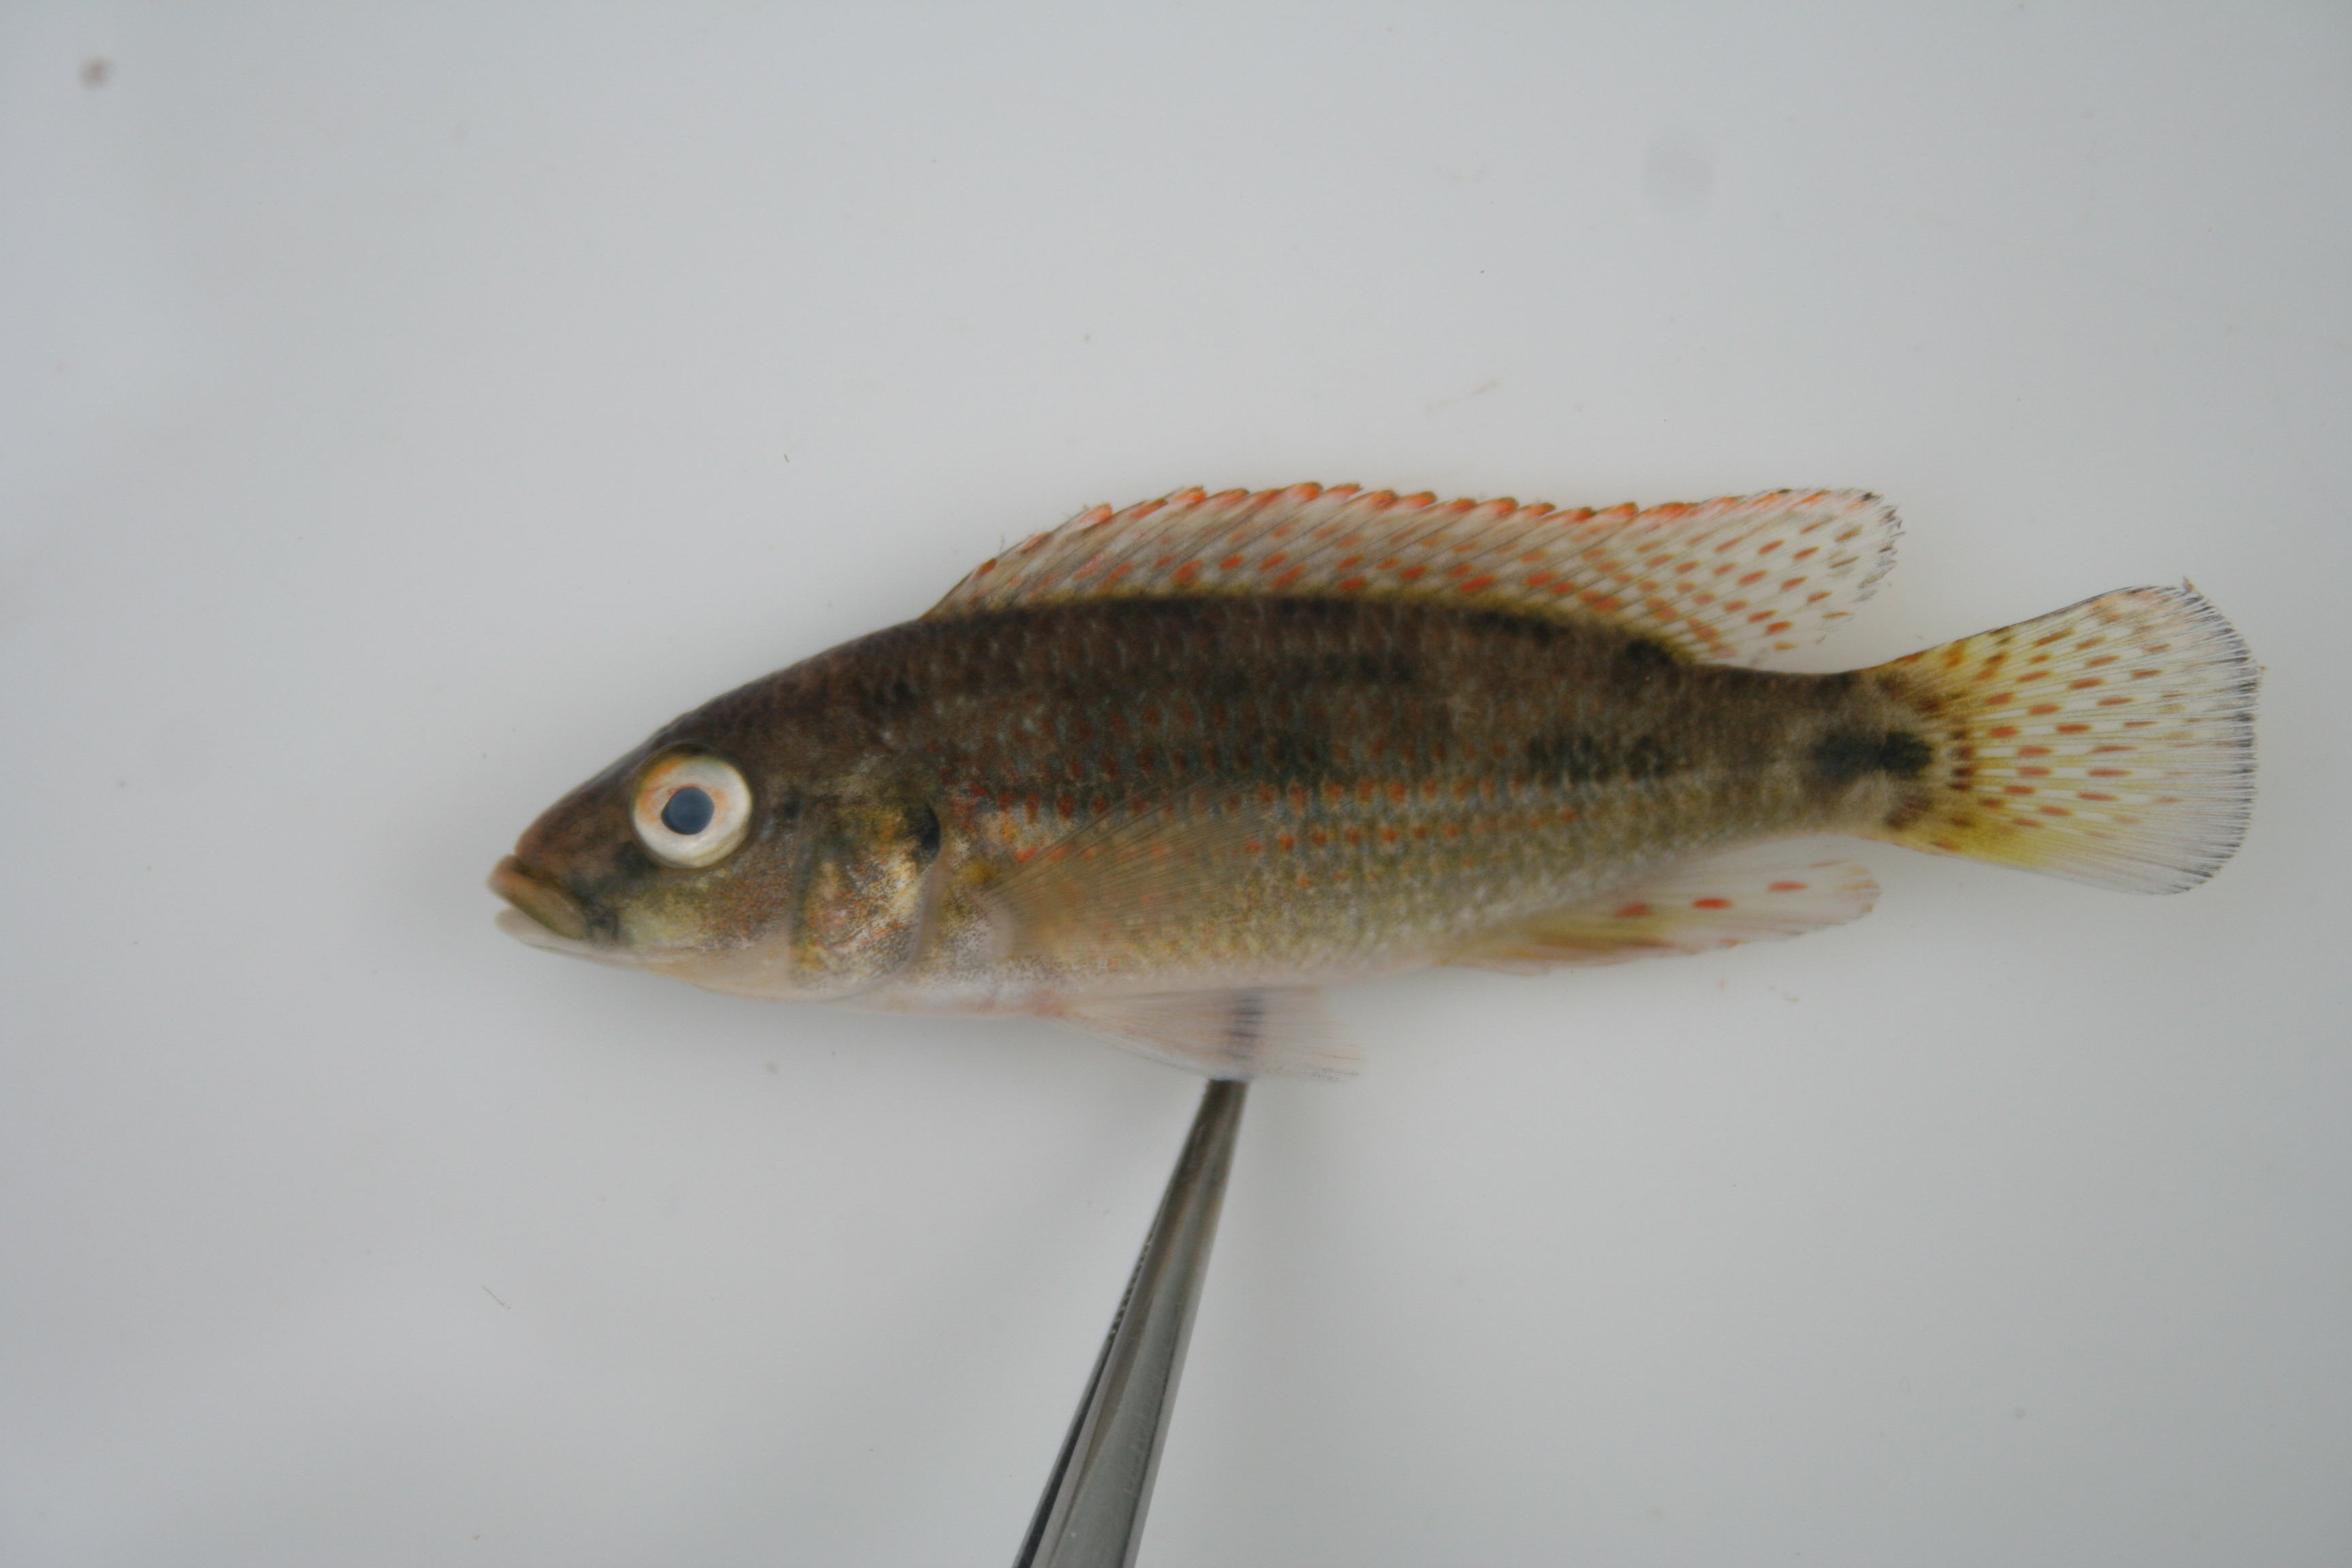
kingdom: Animalia
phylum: Chordata
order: Perciformes
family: Cichlidae
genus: Pharyngochromis
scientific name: Pharyngochromis
